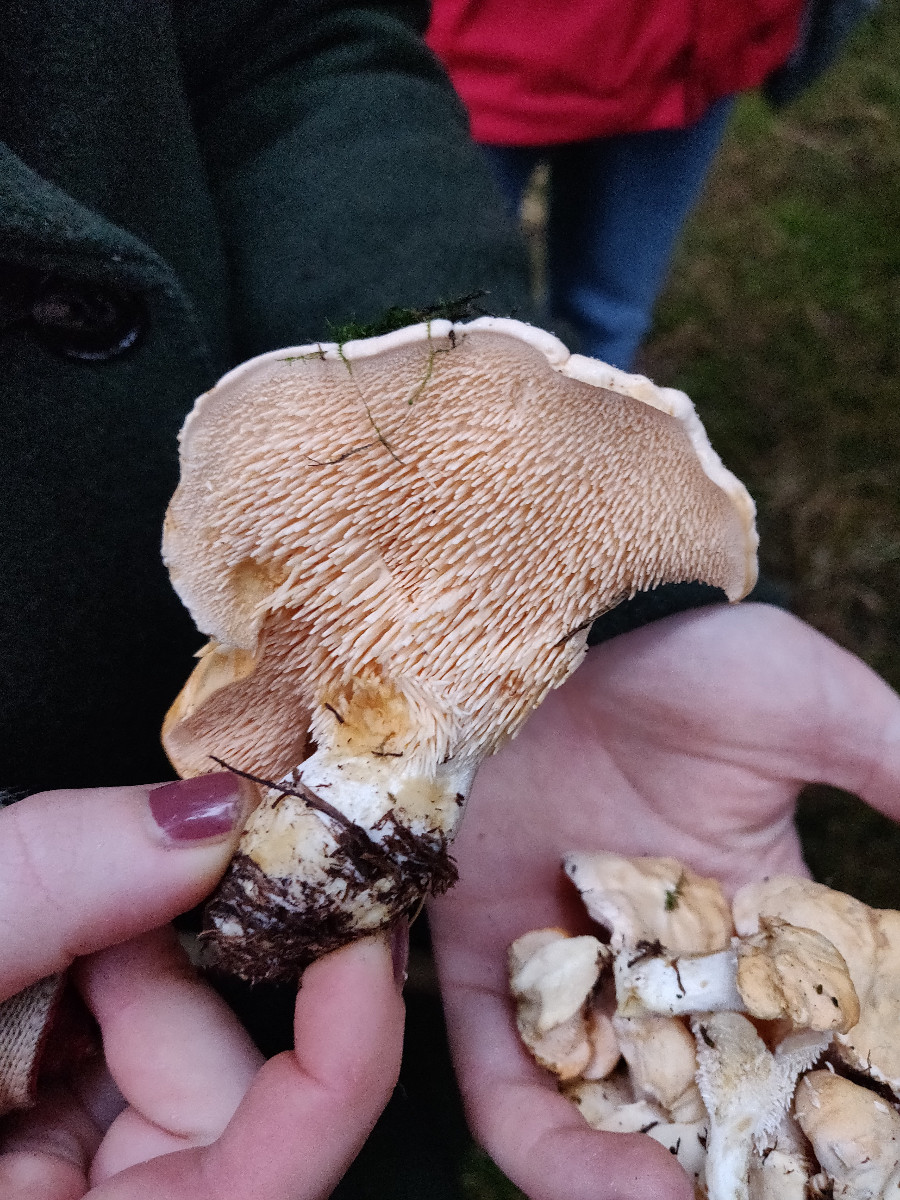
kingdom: Fungi
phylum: Basidiomycota
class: Agaricomycetes
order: Cantharellales
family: Hydnaceae
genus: Hydnum
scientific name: Hydnum repandum
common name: almindelig pigsvamp
